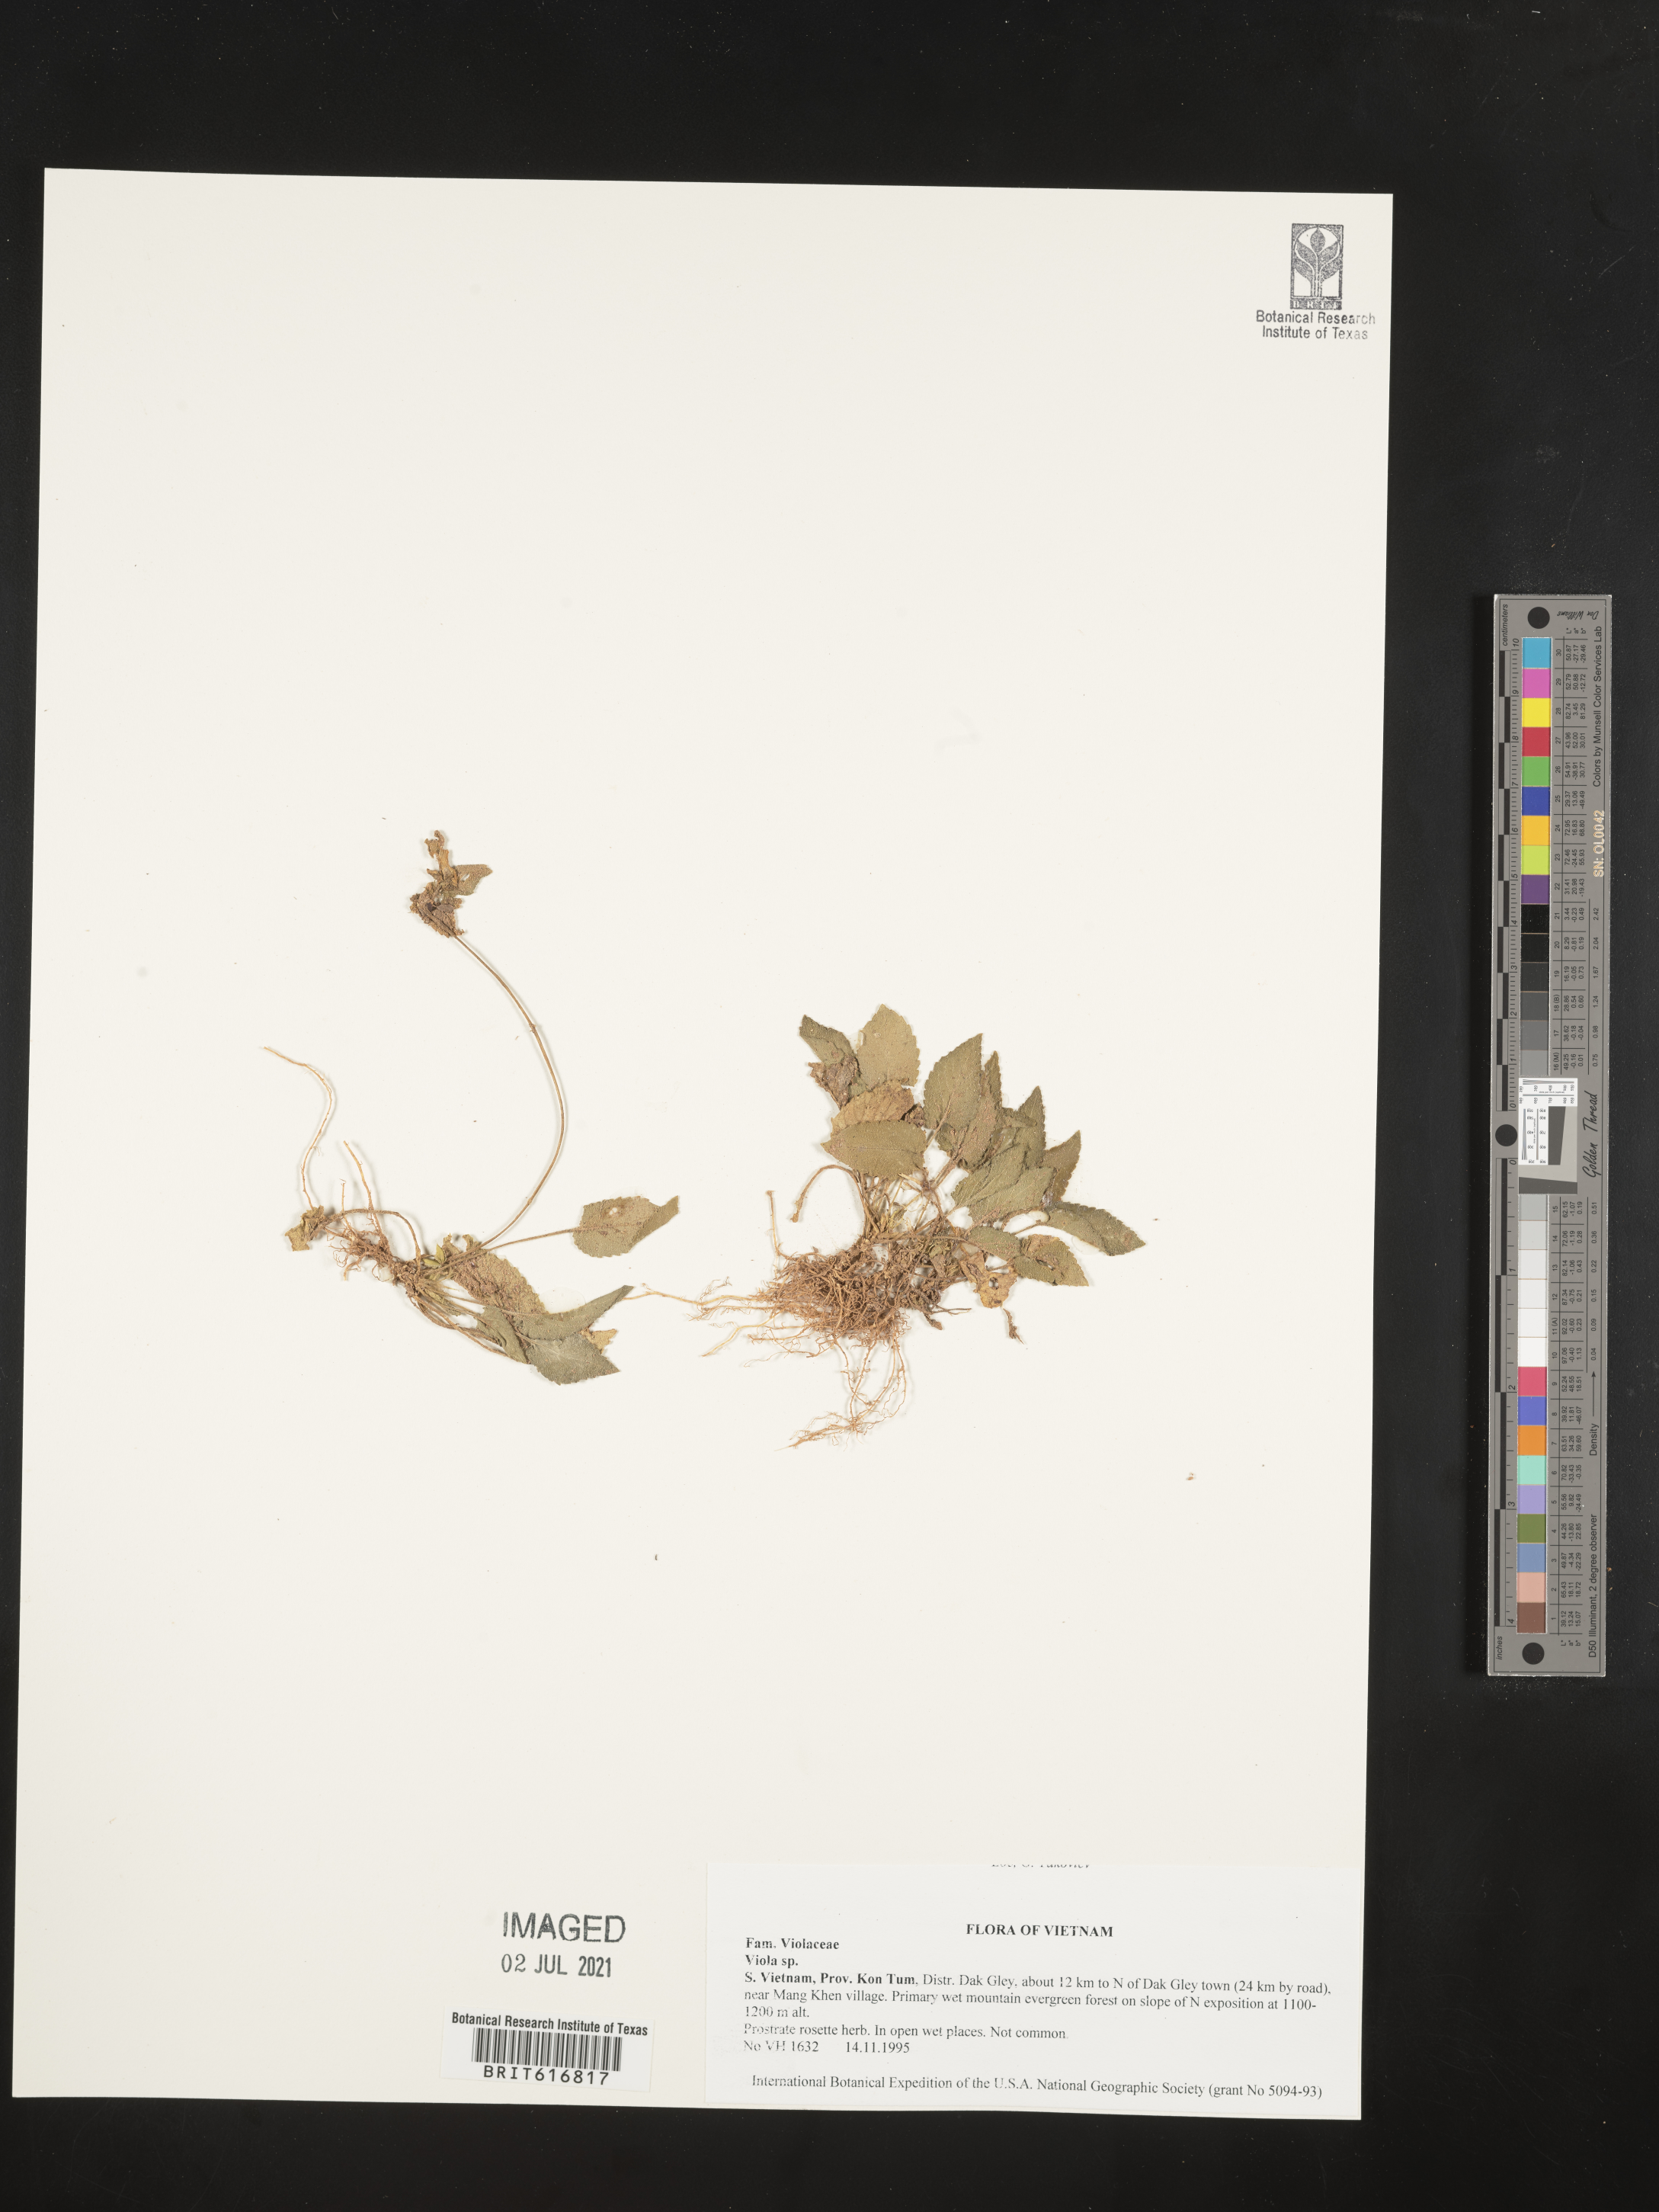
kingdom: Plantae
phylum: Tracheophyta
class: Magnoliopsida
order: Malpighiales
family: Violaceae
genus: Viola
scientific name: Viola
